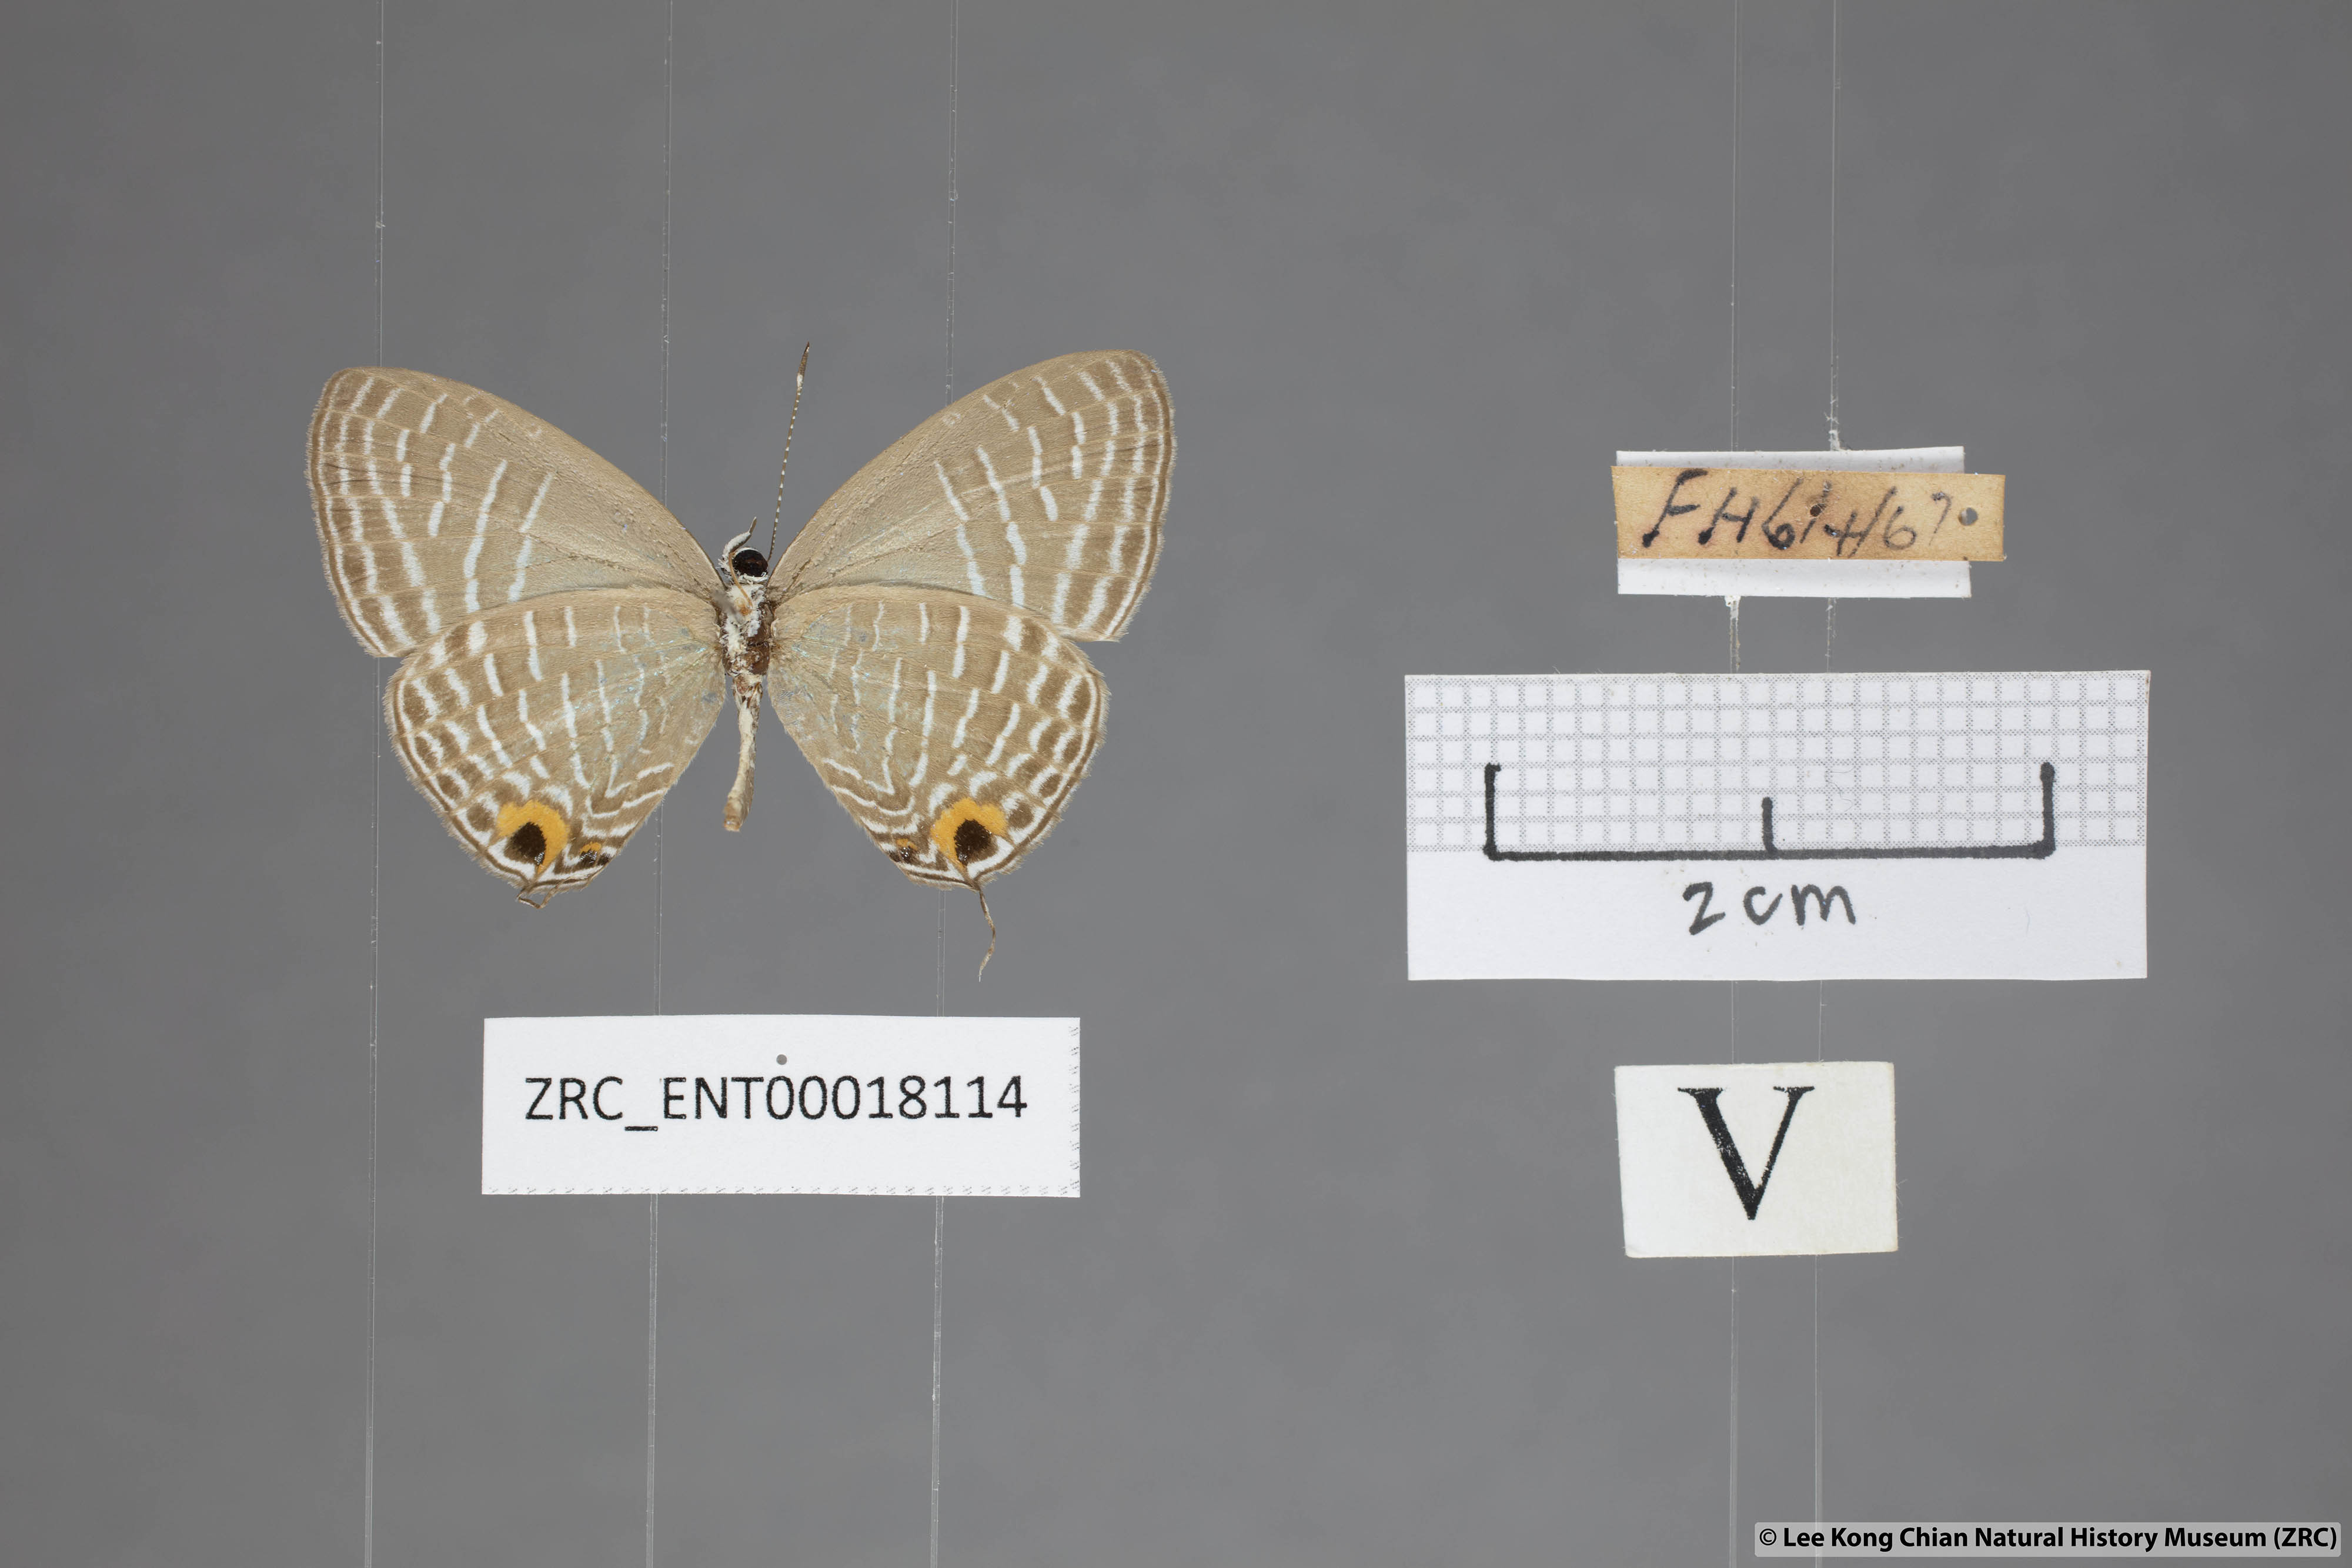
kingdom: Animalia
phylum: Arthropoda
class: Insecta
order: Lepidoptera
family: Lycaenidae
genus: Jamides
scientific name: Jamides elpis
